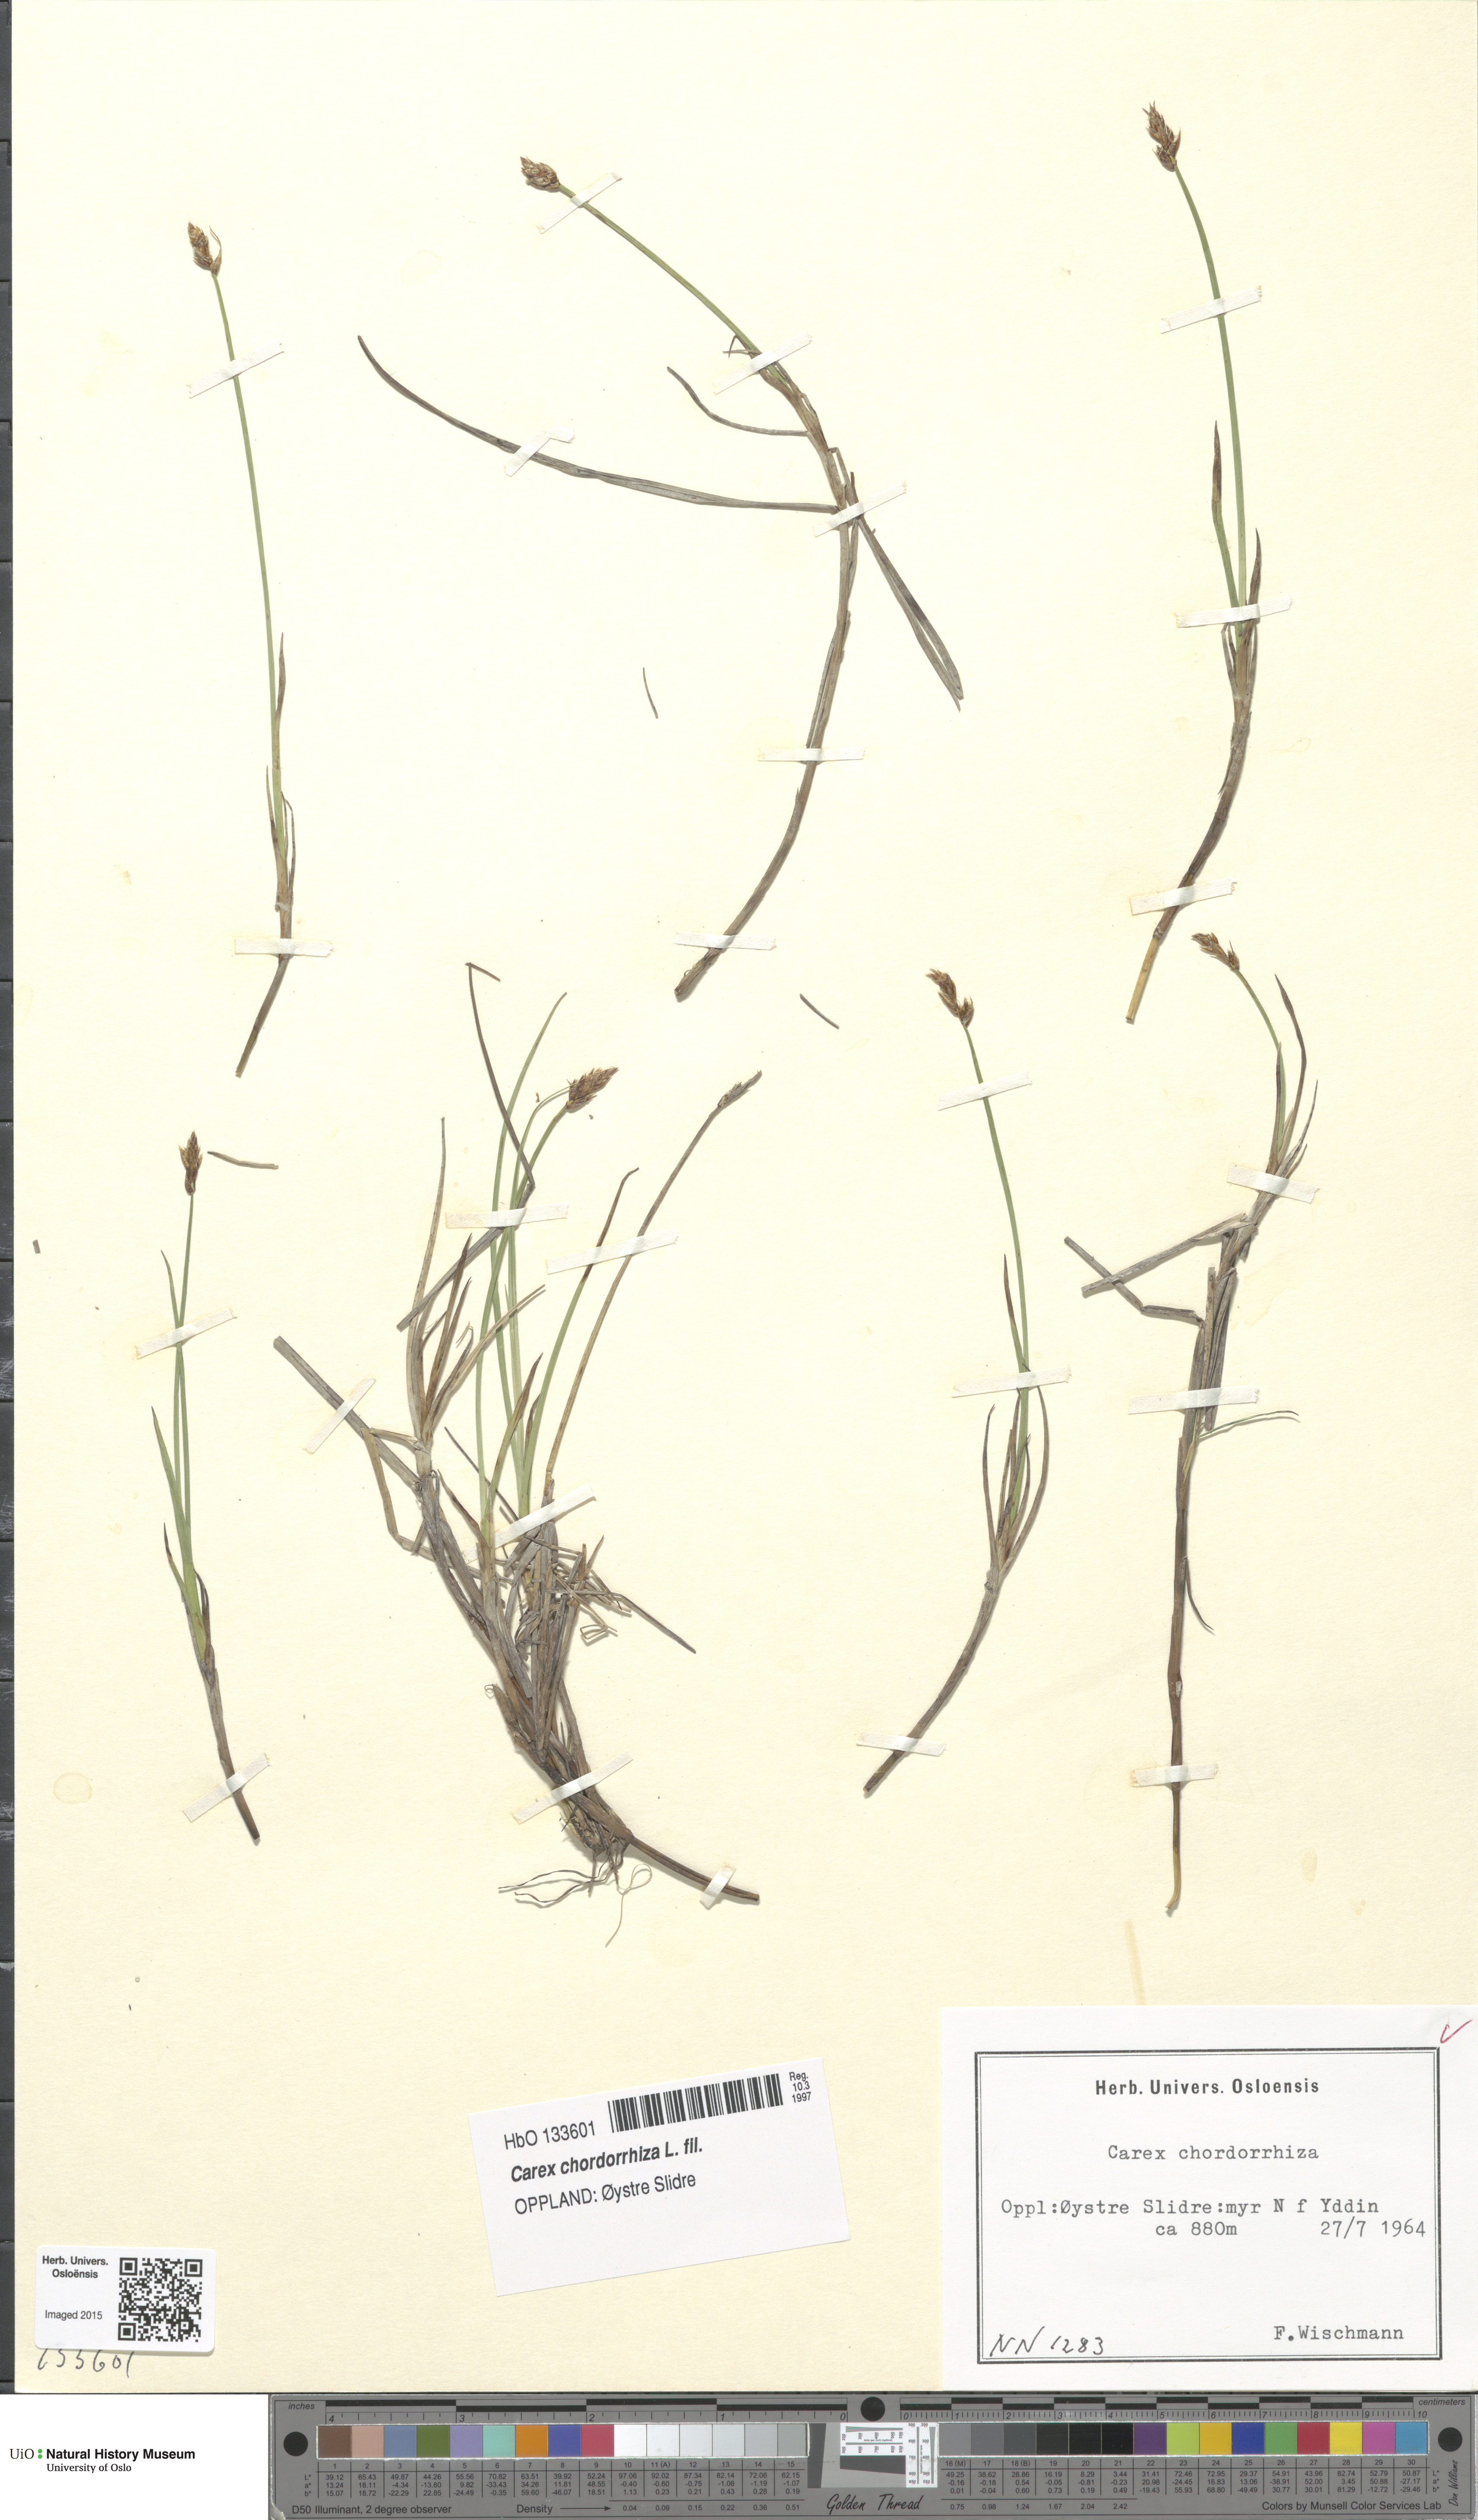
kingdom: Plantae
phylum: Tracheophyta
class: Liliopsida
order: Poales
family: Cyperaceae
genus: Carex
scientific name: Carex chordorrhiza
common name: String sedge
